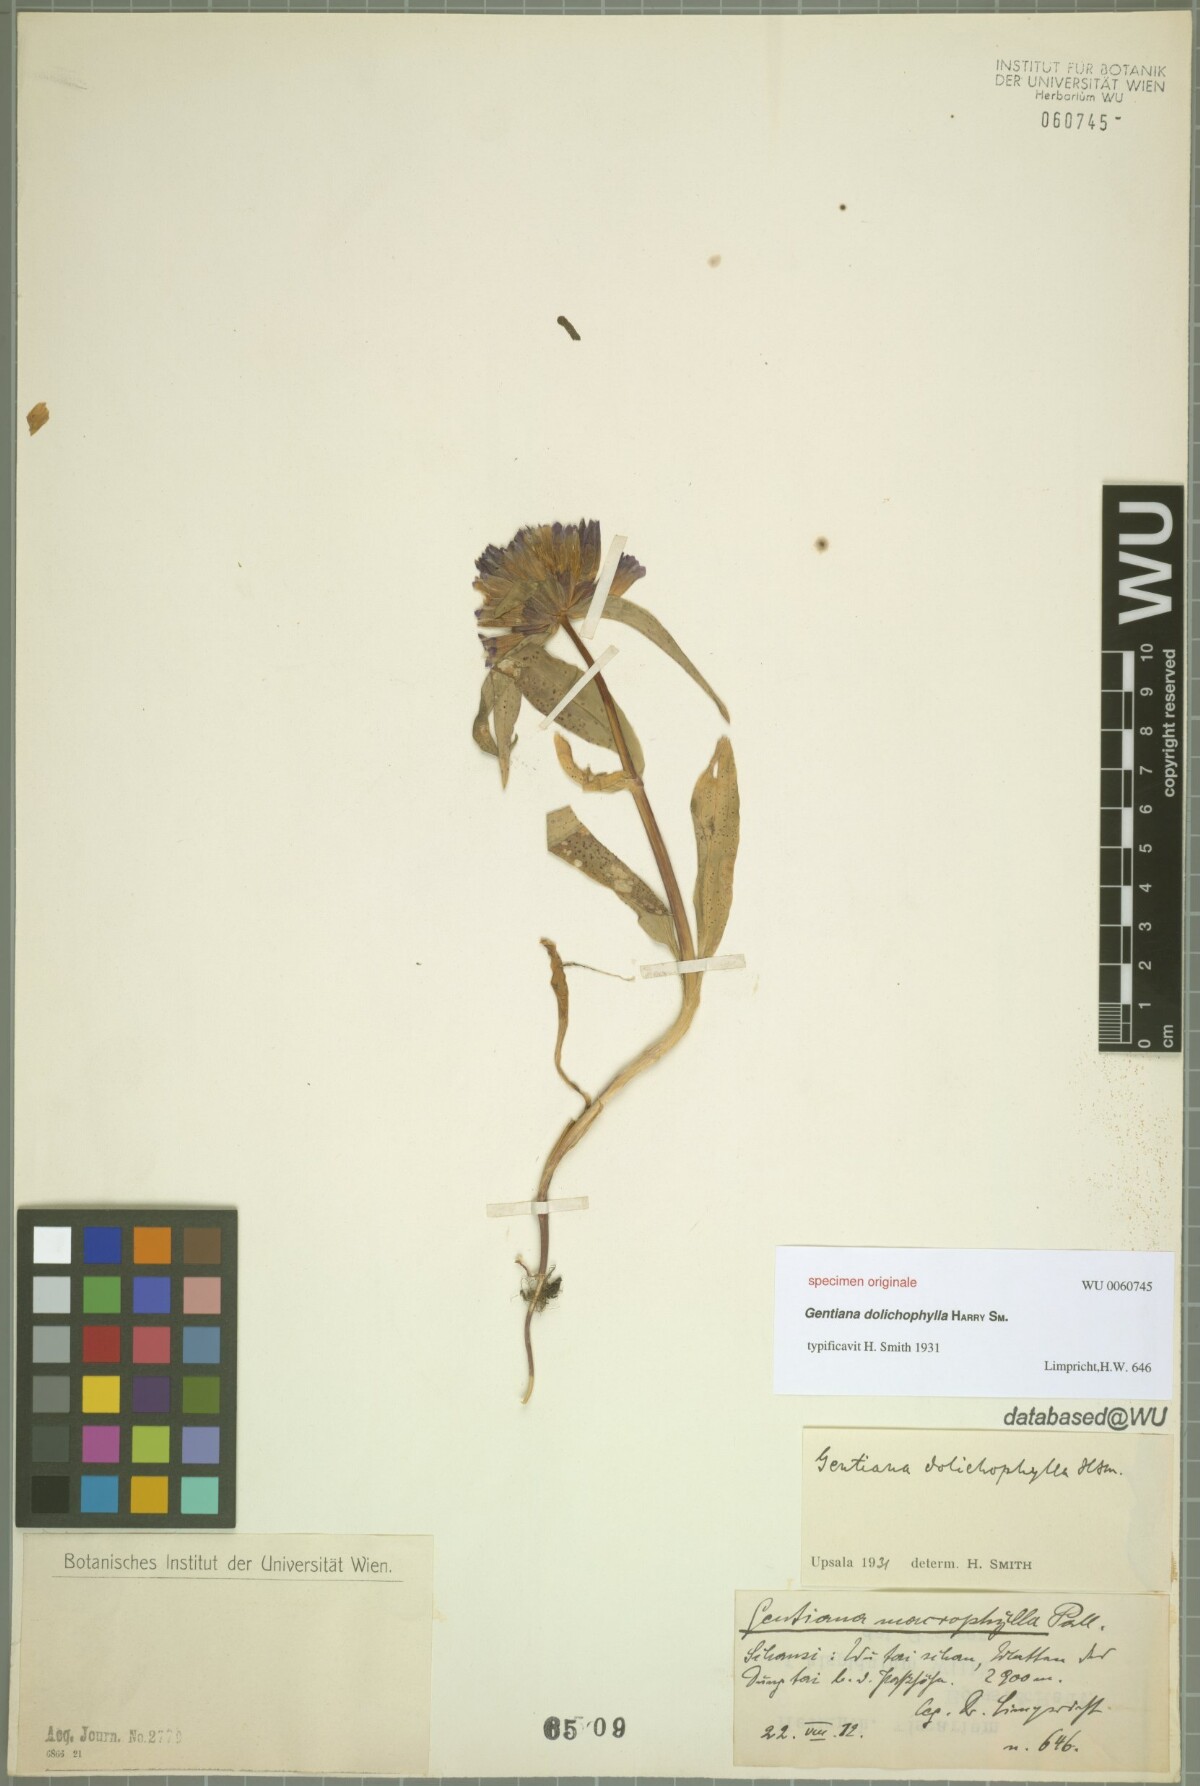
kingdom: Plantae
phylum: Tracheophyta
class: Magnoliopsida
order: Gentianales
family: Gentianaceae
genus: Gentiana
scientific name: Gentiana
